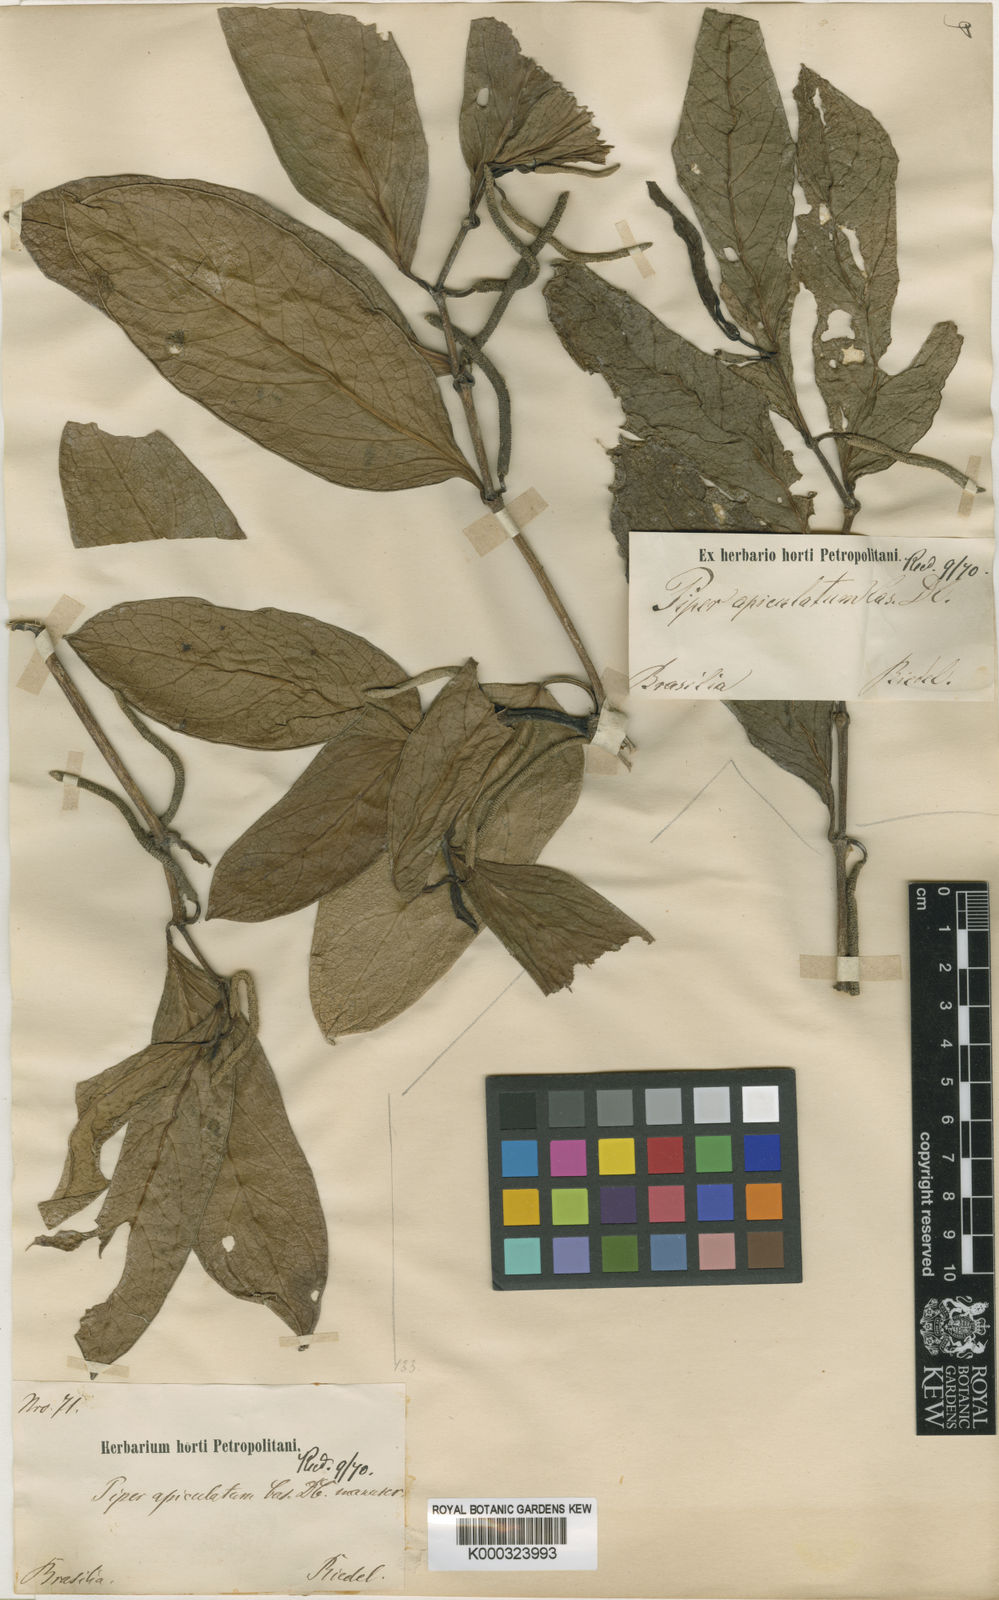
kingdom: Plantae
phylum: Tracheophyta
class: Magnoliopsida
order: Piperales
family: Piperaceae
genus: Piper
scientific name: Piper divaricatum
